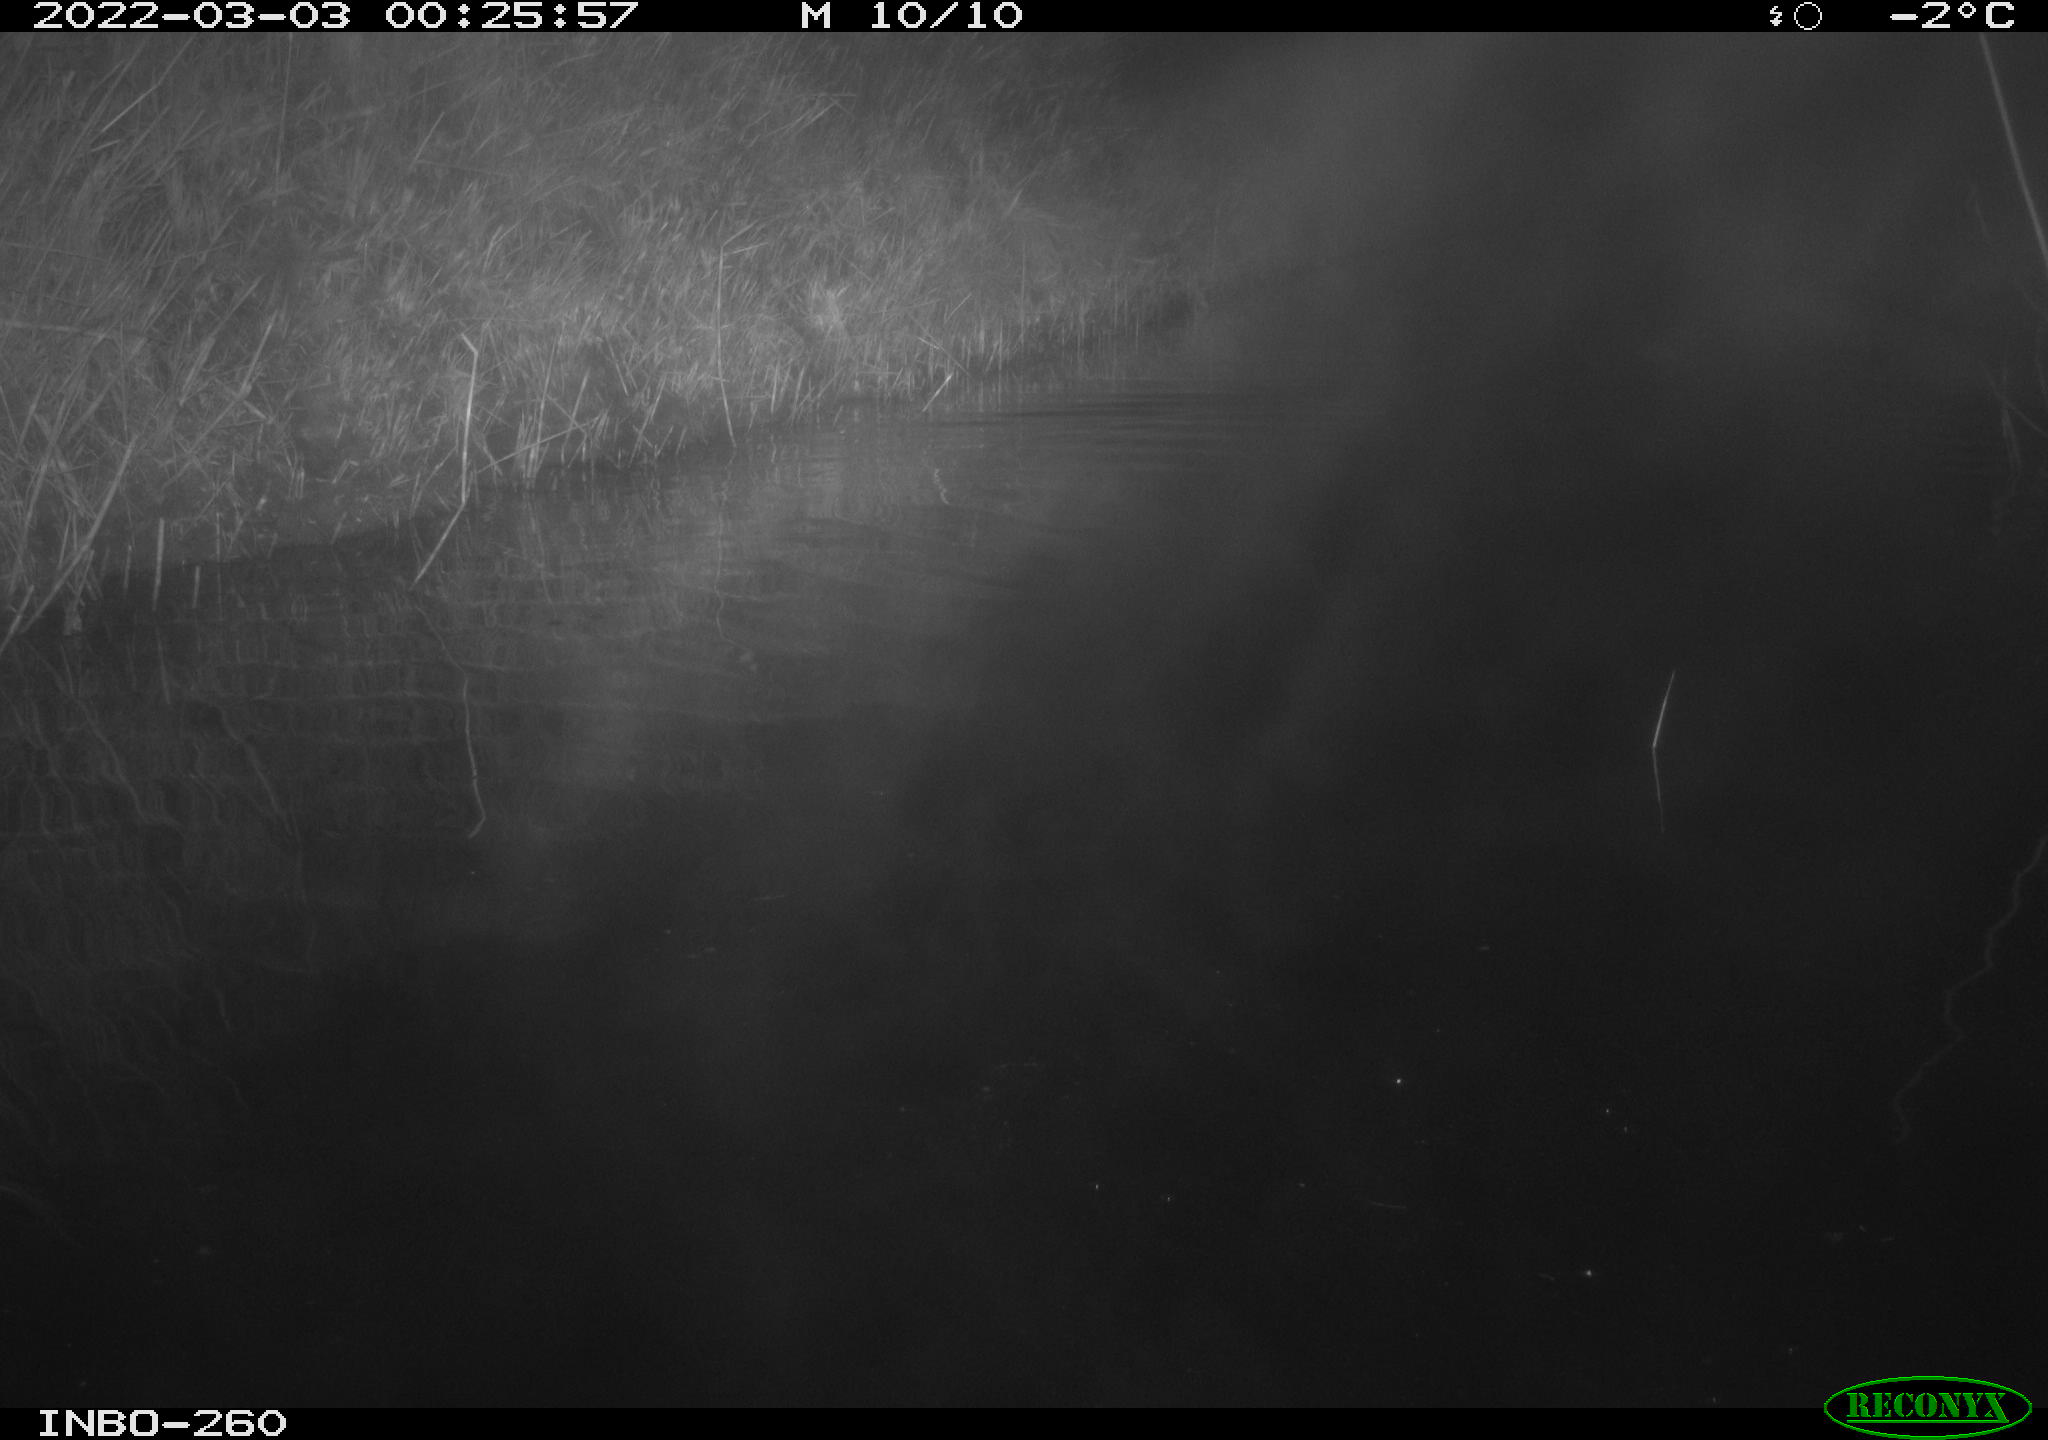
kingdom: Animalia
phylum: Chordata
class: Mammalia
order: Rodentia
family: Cricetidae
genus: Ondatra
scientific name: Ondatra zibethicus
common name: Muskrat
